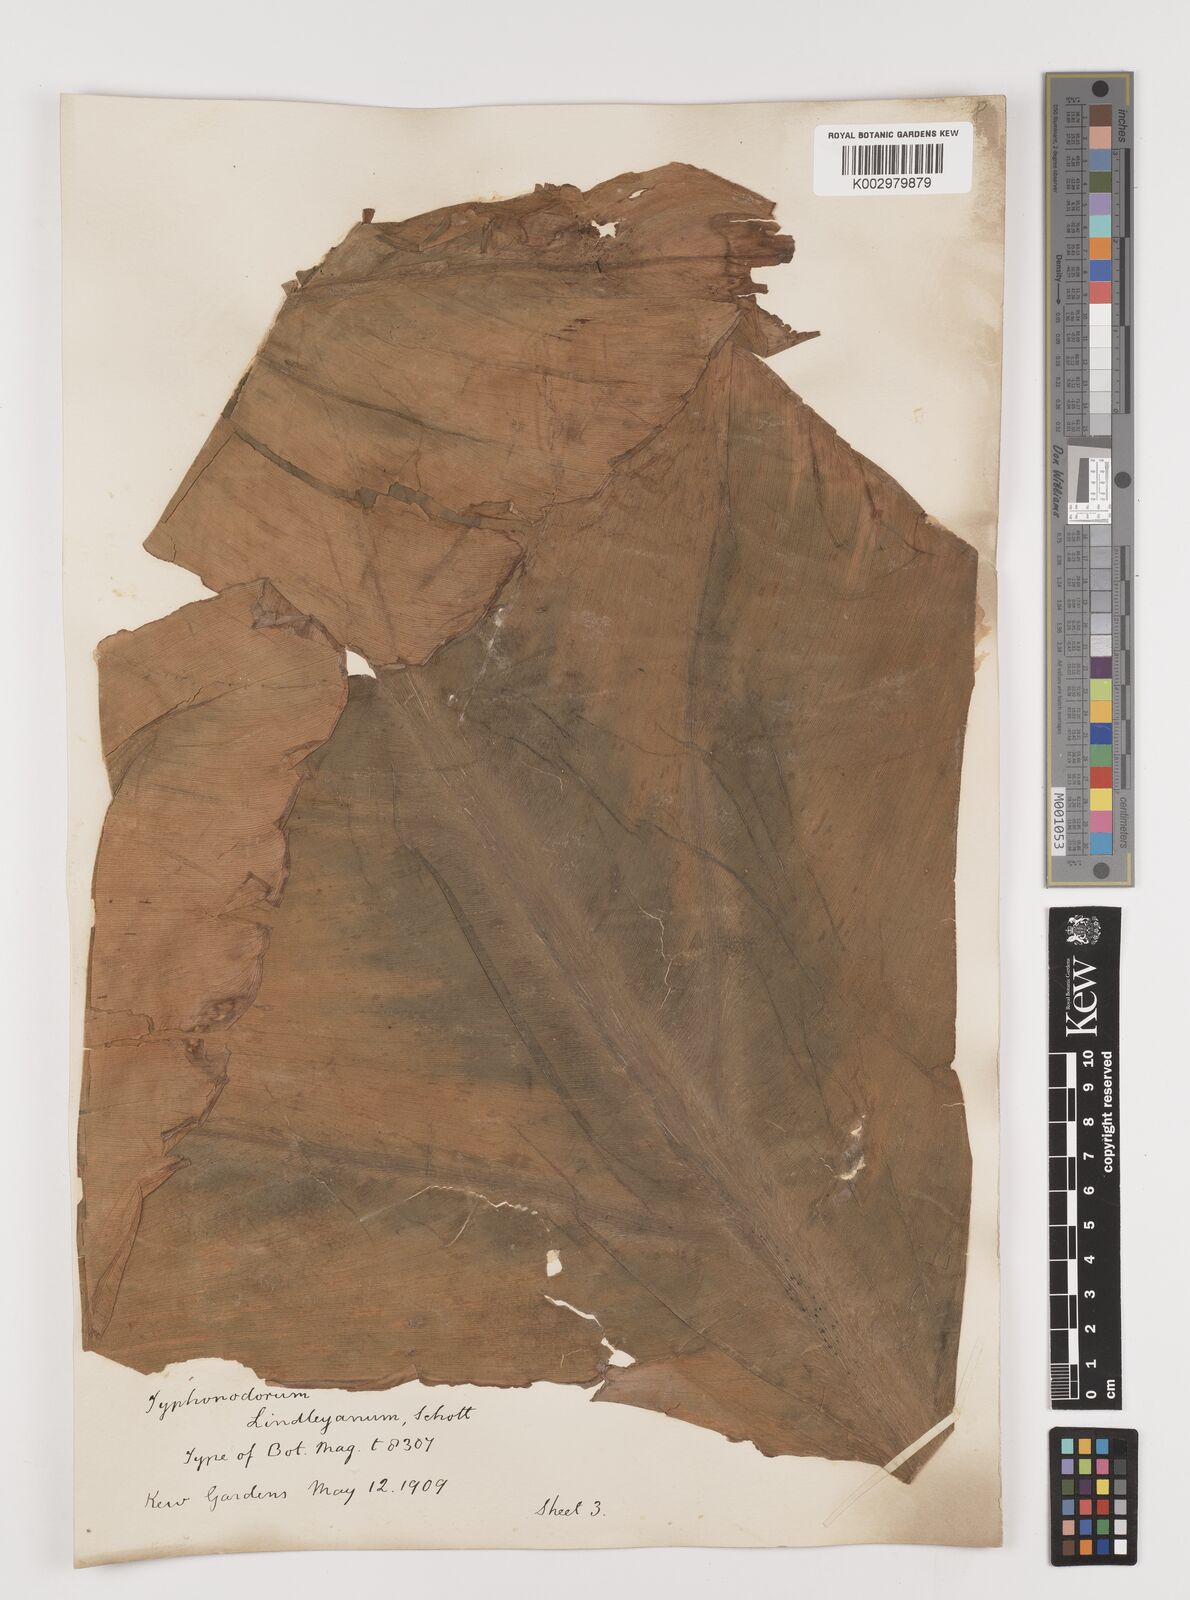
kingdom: Plantae
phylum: Tracheophyta
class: Liliopsida
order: Alismatales
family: Araceae
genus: Typhonodorum
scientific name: Typhonodorum lindleyanum
